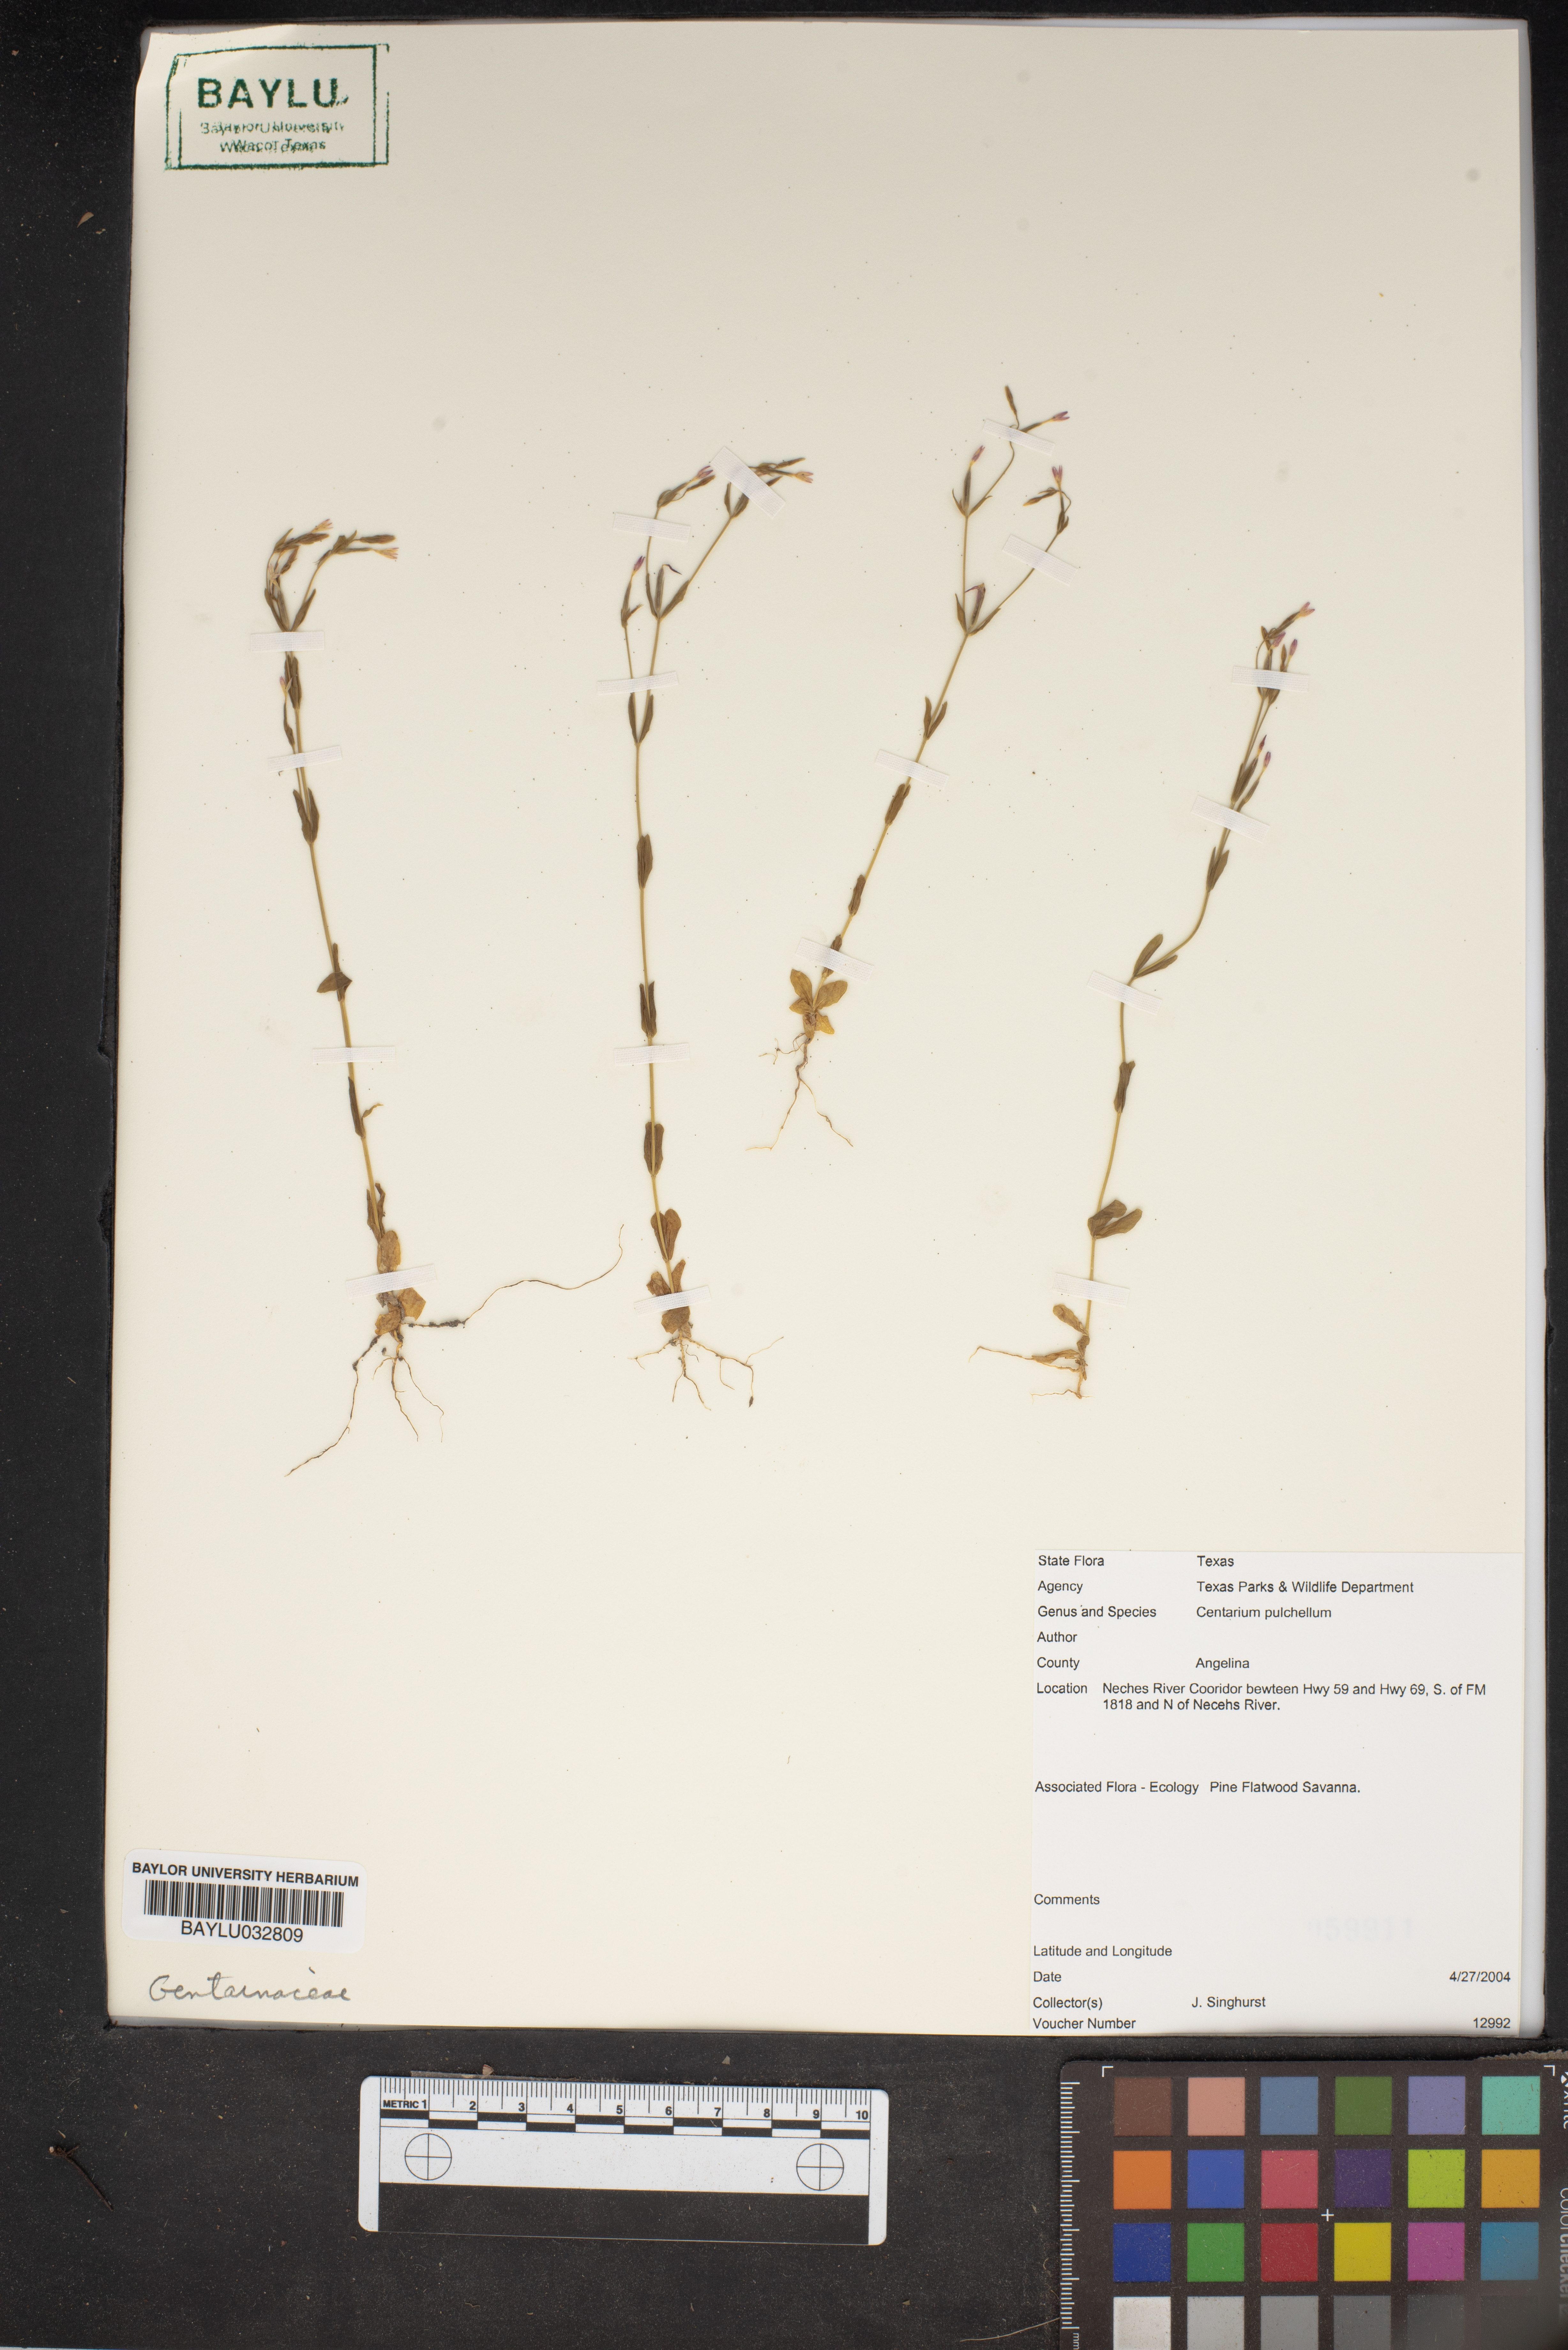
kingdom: Plantae
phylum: Tracheophyta
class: Magnoliopsida
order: Gentianales
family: Gentianaceae
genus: Centaurium
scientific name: Centaurium pulchellum
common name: Lesser centaury
